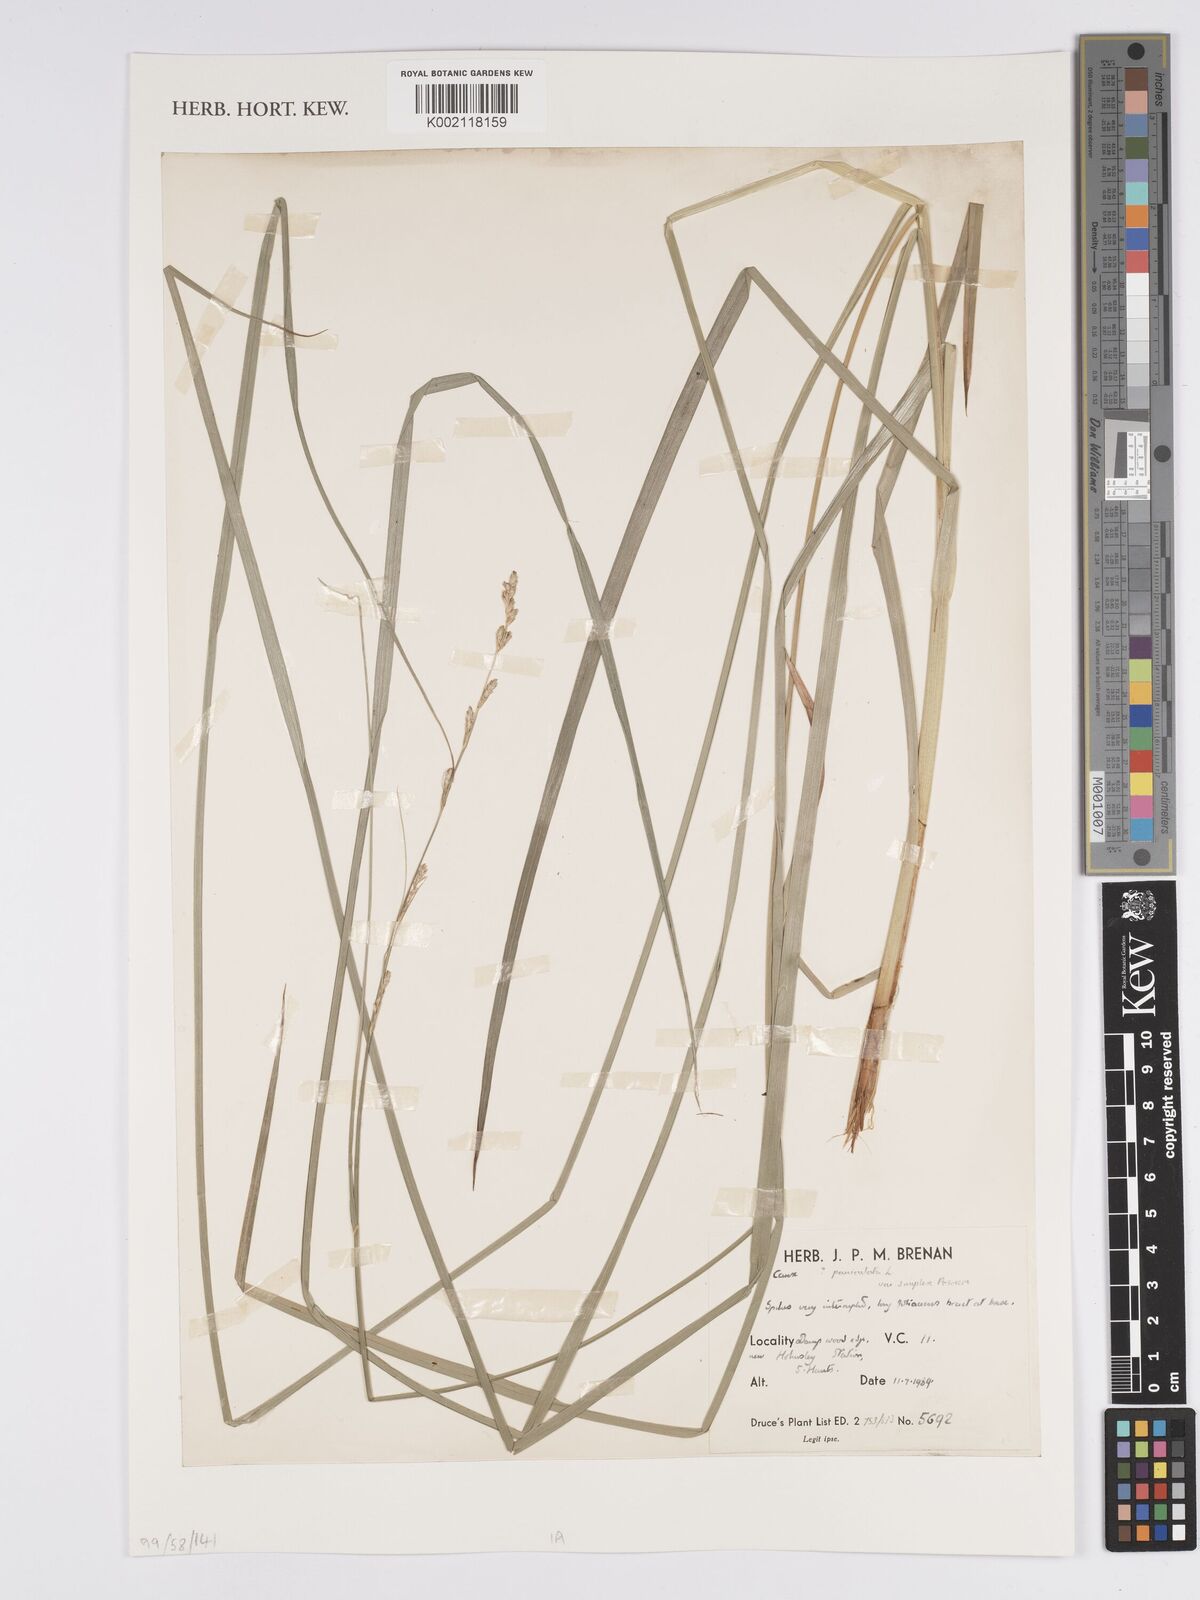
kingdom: Plantae
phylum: Tracheophyta
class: Liliopsida
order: Poales
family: Cyperaceae
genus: Carex
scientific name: Carex paniculata
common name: Greater tussock-sedge
